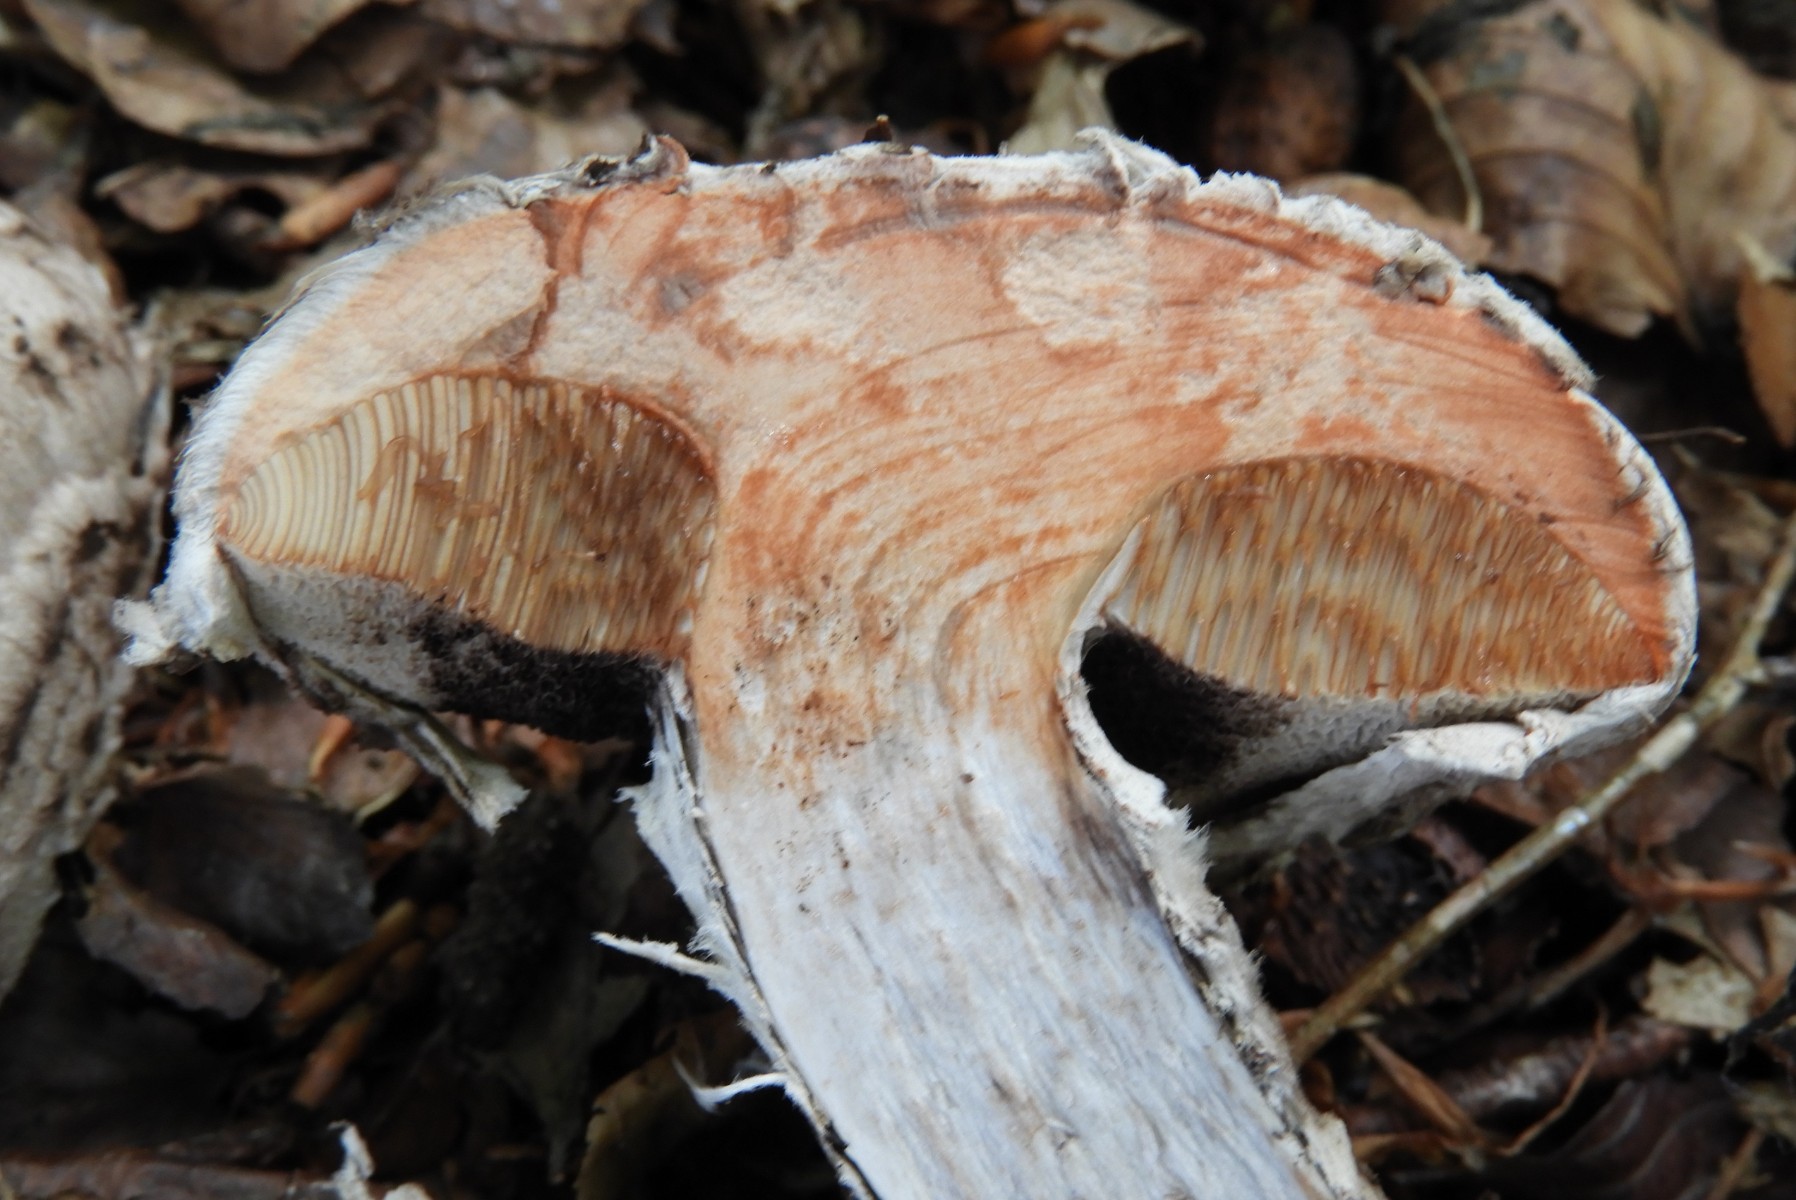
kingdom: Fungi
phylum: Basidiomycota
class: Agaricomycetes
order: Boletales
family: Boletaceae
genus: Strobilomyces
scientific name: Strobilomyces strobilaceus
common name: koglerørhat
